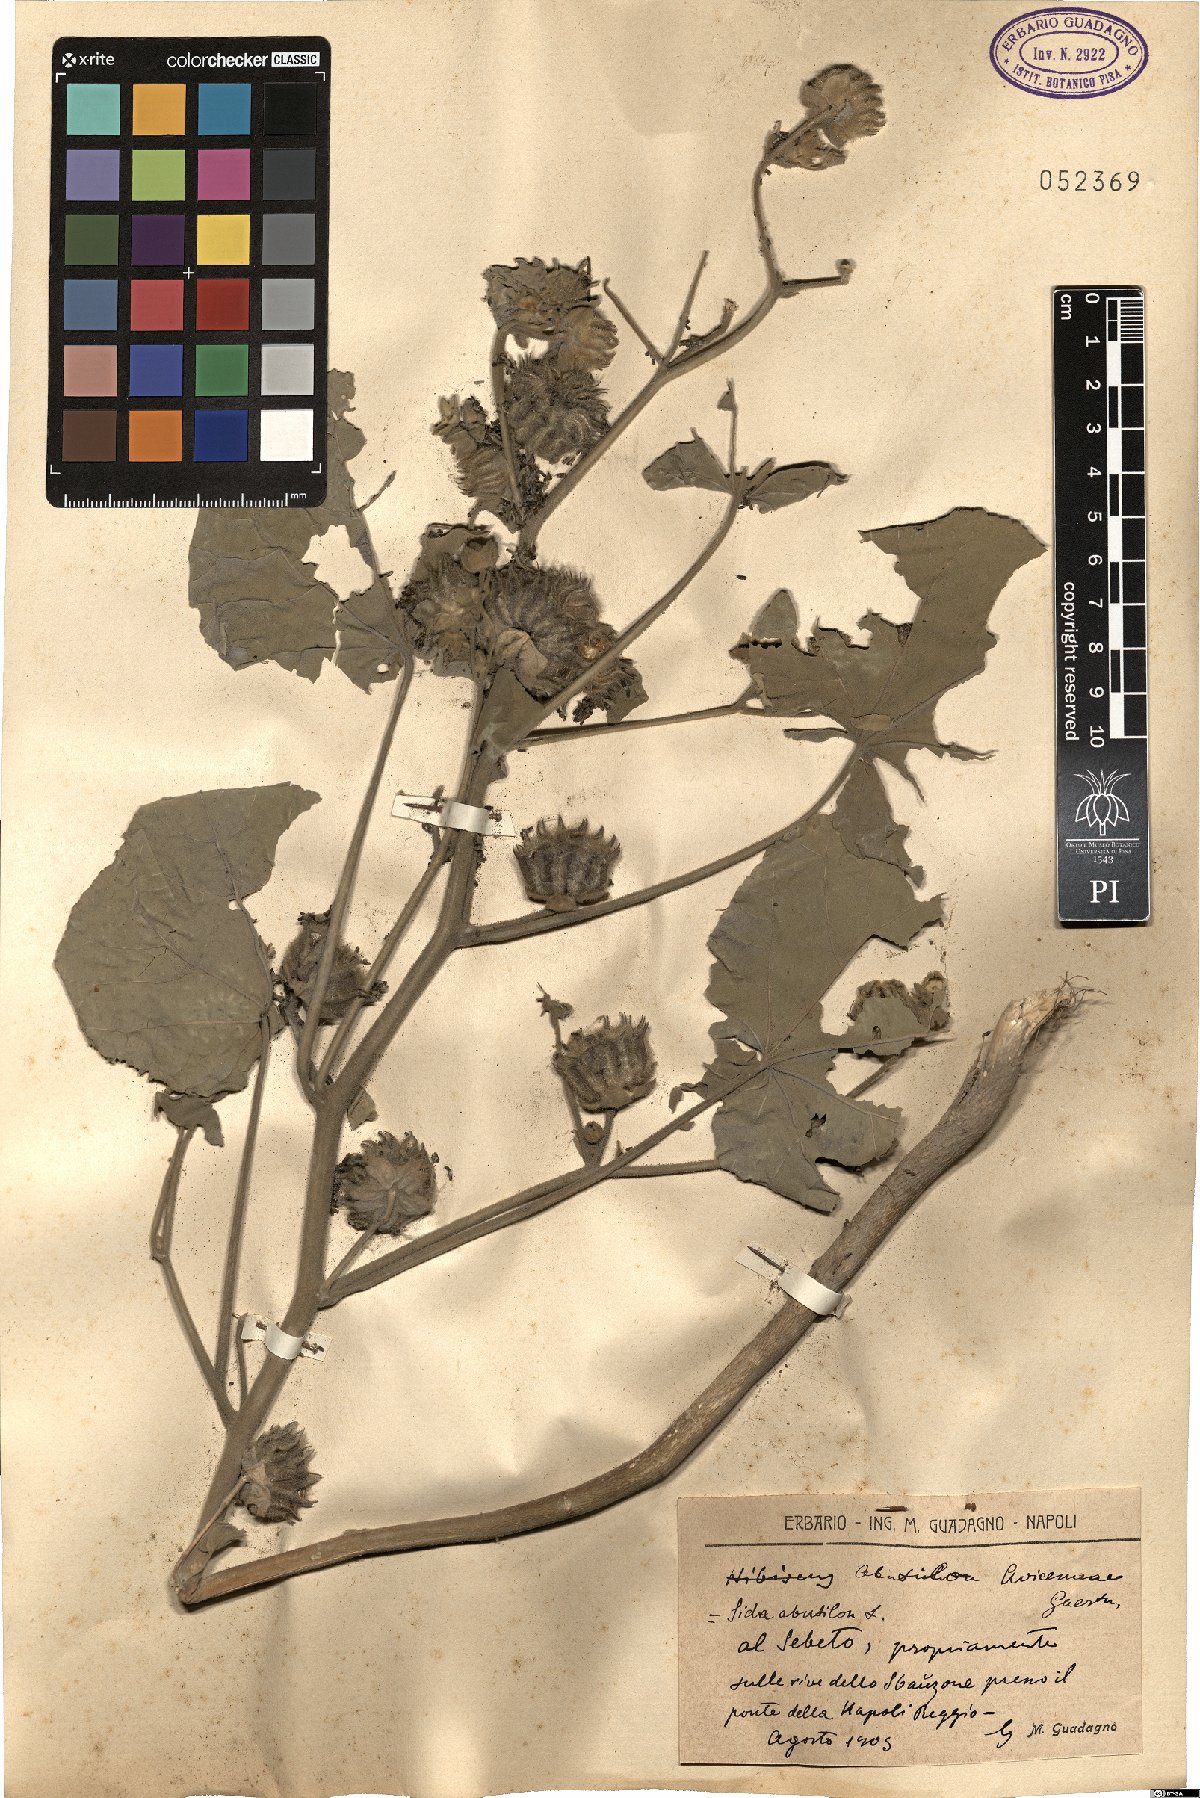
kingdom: Plantae
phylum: Tracheophyta
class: Magnoliopsida
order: Malvales
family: Malvaceae
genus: Abutilon
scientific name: Abutilon theophrasti
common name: Velvetleaf
